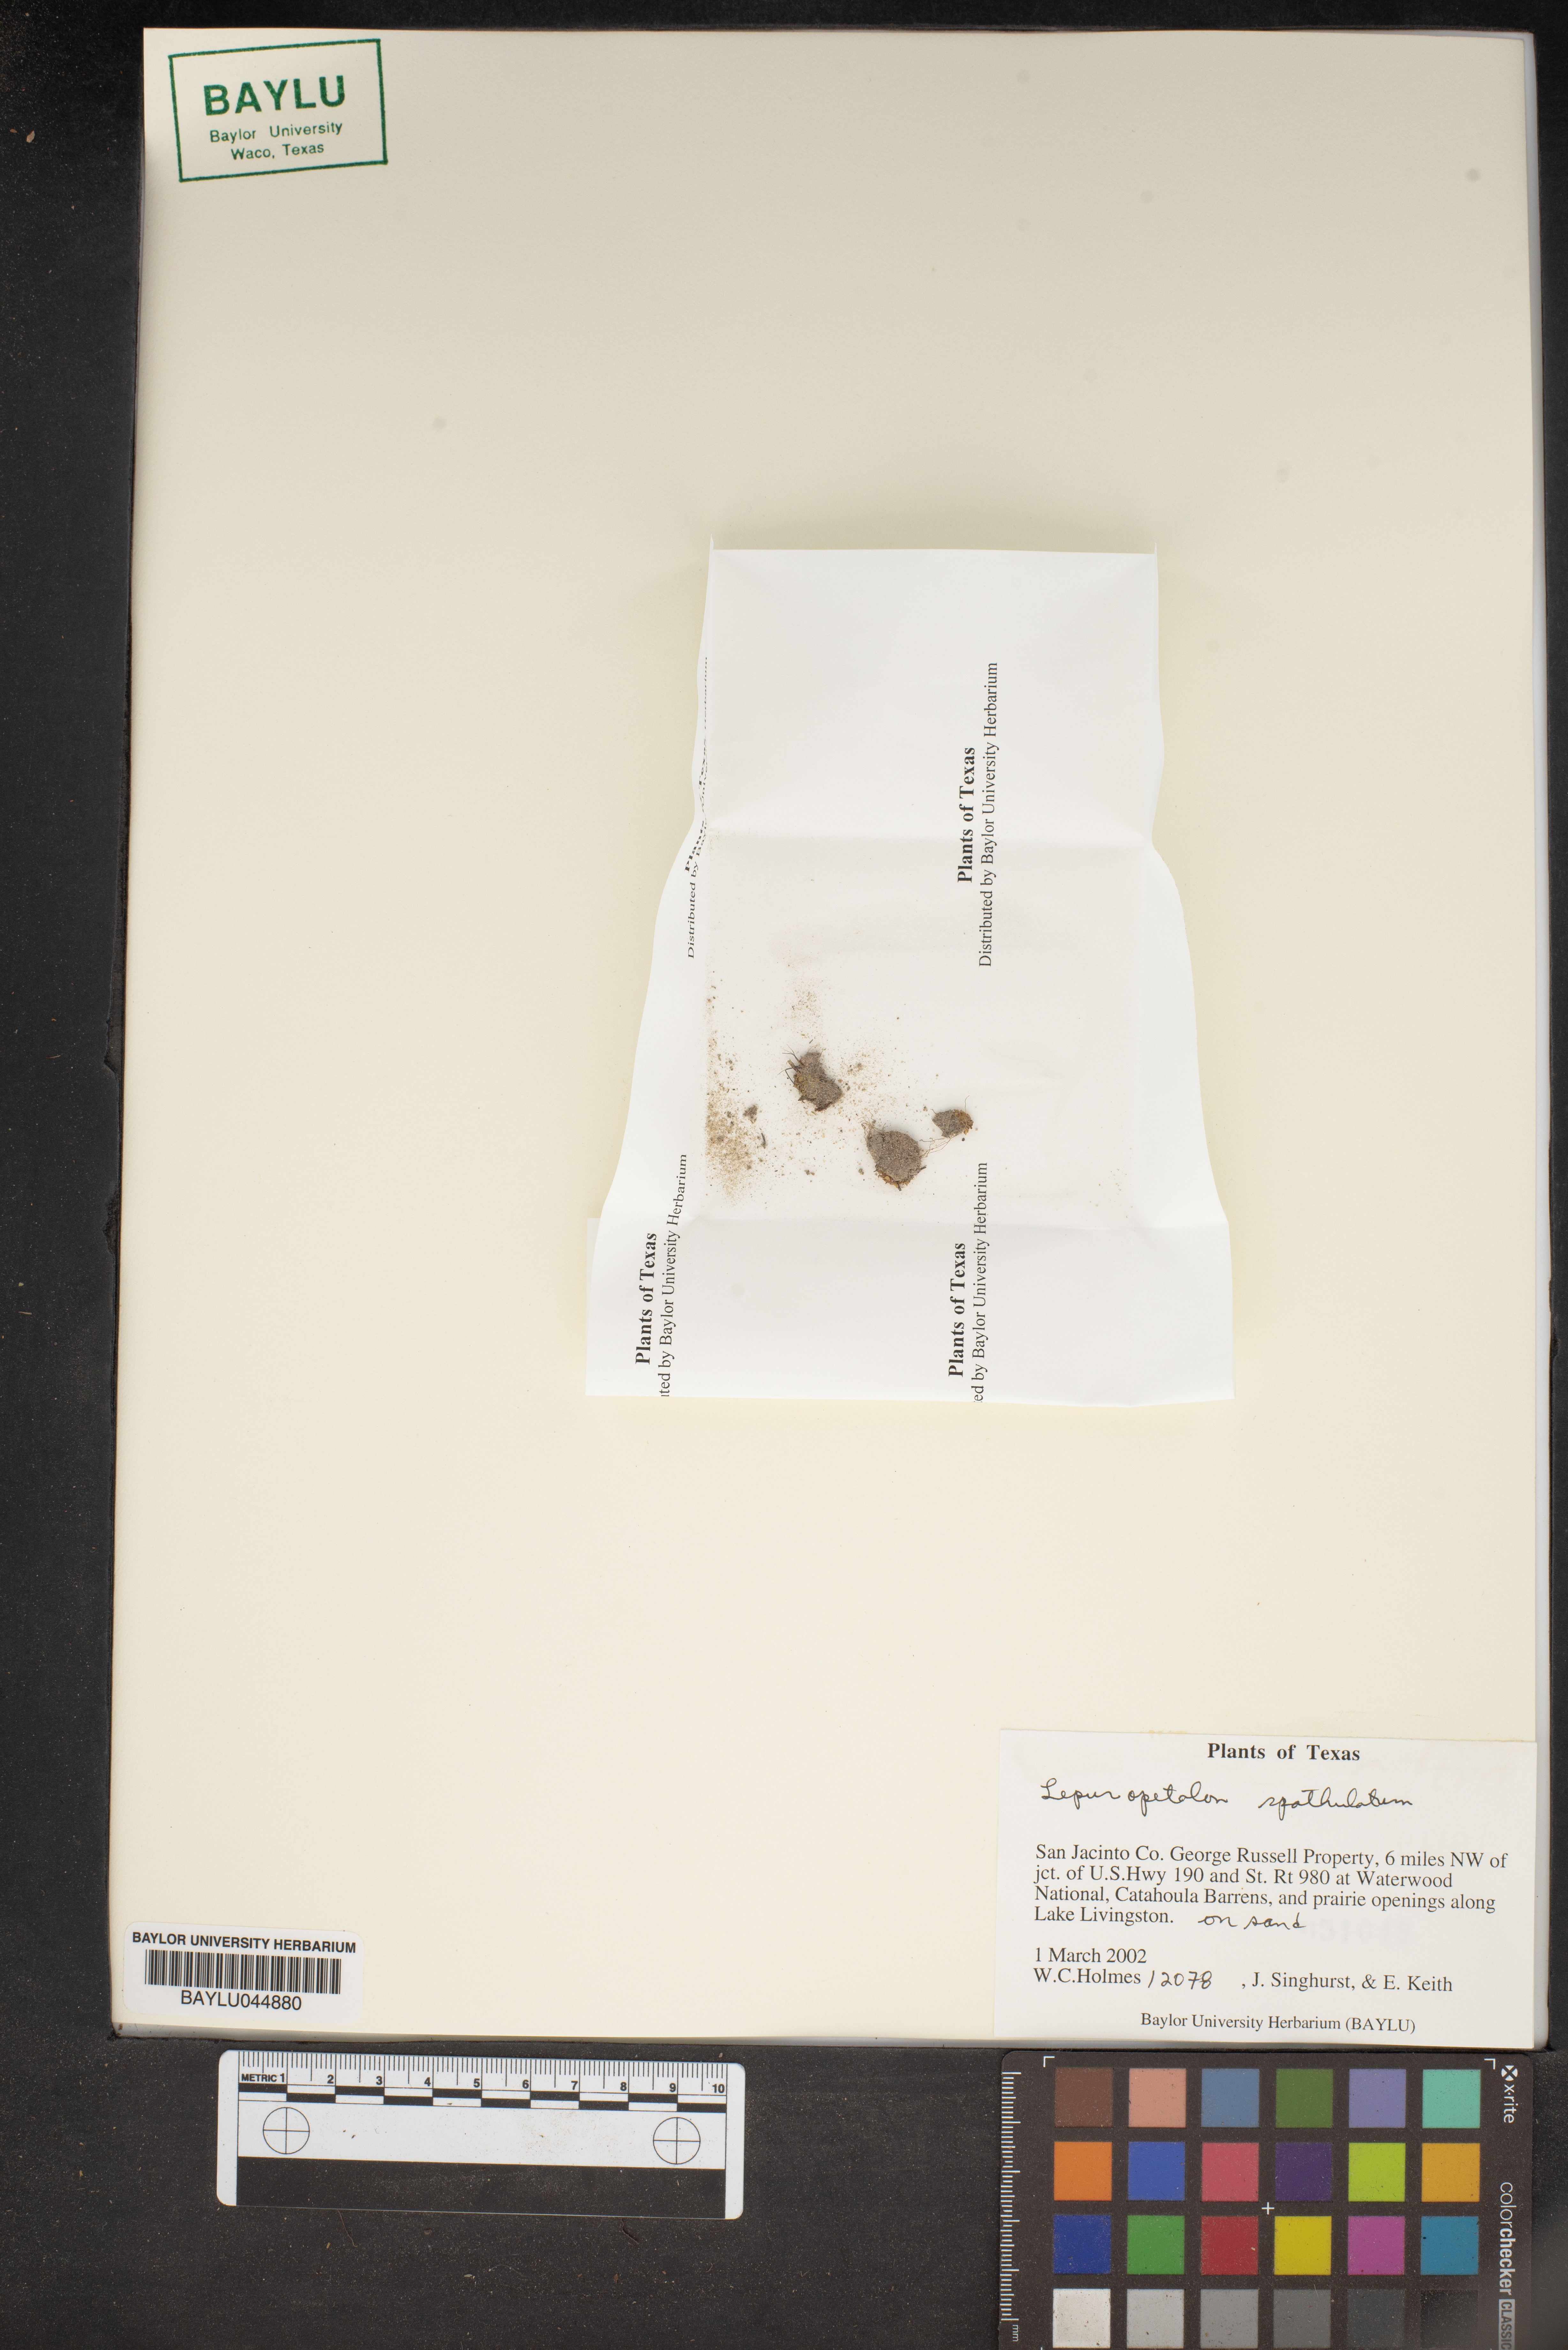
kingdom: Plantae
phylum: Tracheophyta
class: Magnoliopsida
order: Celastrales
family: Parnassiaceae
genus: Lepuropetalon
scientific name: Lepuropetalon spathulatum
